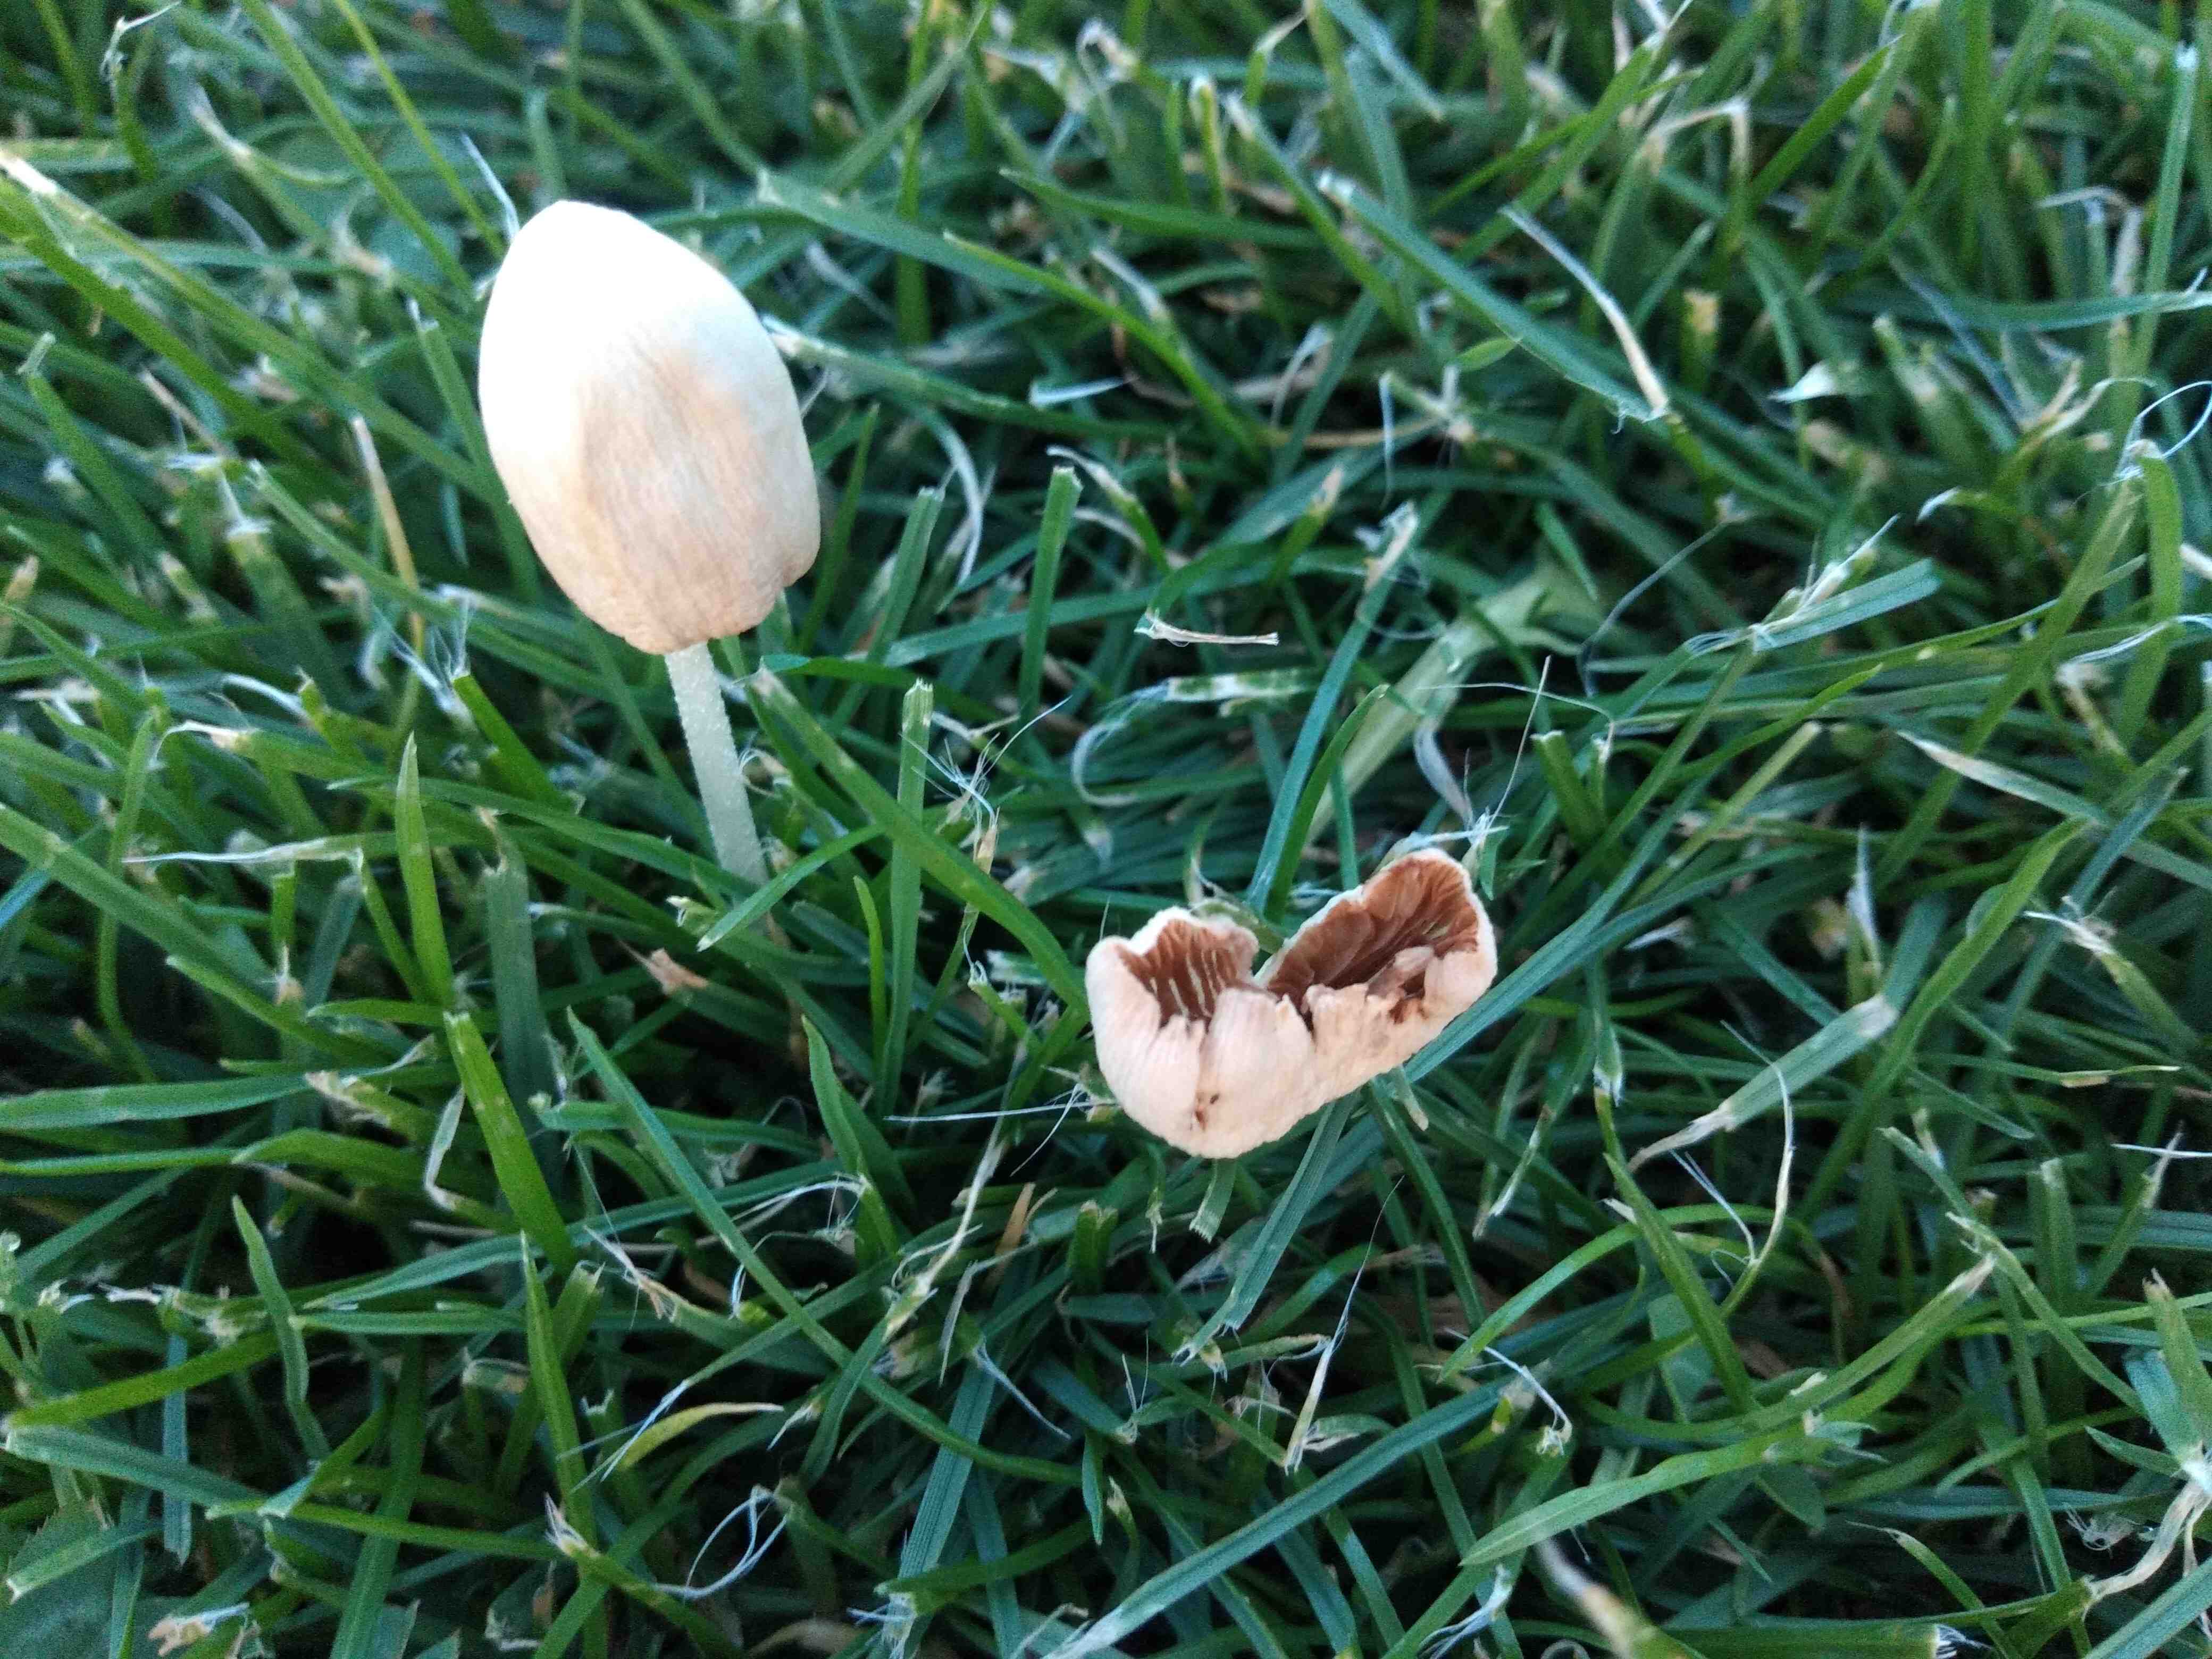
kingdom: Fungi
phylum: Basidiomycota
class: Agaricomycetes
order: Agaricales
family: Bolbitiaceae
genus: Conocybe
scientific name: Conocybe apala
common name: mælkehvid keglehat
